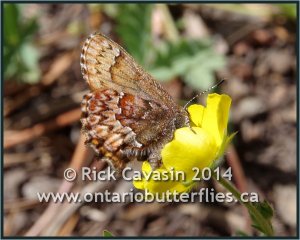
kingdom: Animalia
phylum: Arthropoda
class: Insecta
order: Lepidoptera
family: Lycaenidae
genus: Incisalia
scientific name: Incisalia eryphon
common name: Western Pine Elfin
